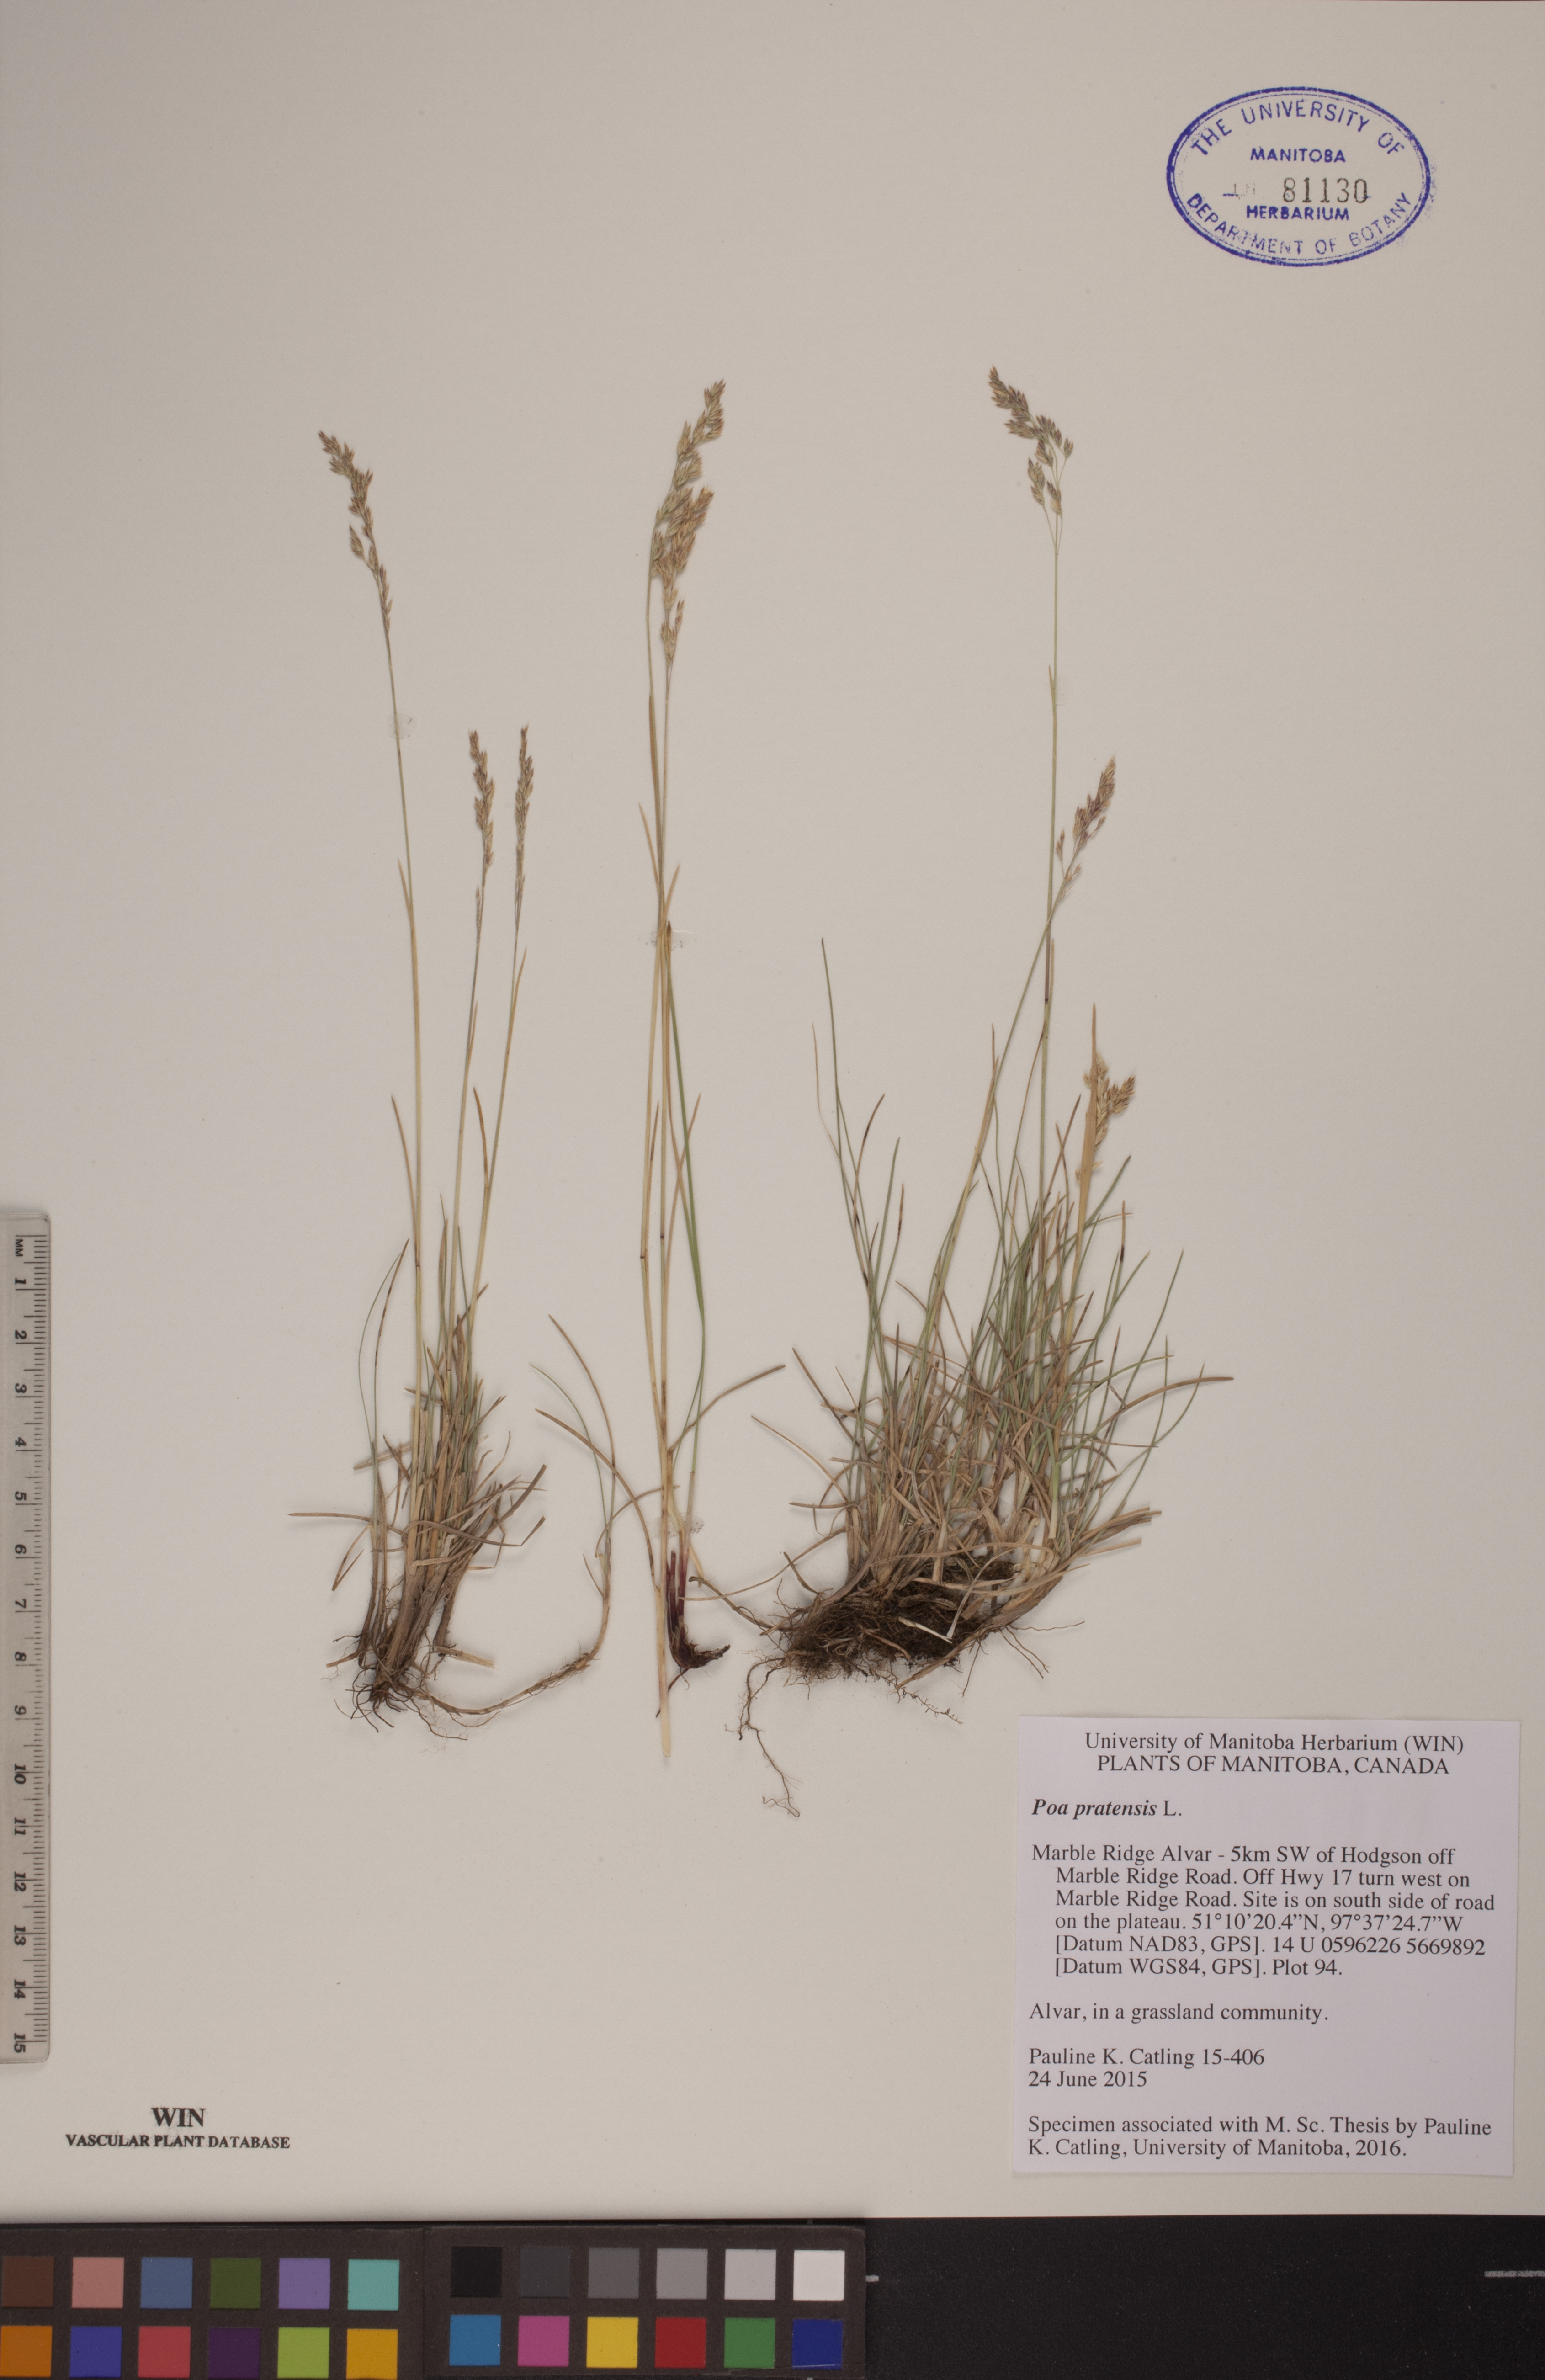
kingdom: Plantae
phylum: Tracheophyta
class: Liliopsida
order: Poales
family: Poaceae
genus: Poa
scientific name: Poa pratensis
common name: Kentucky bluegrass
